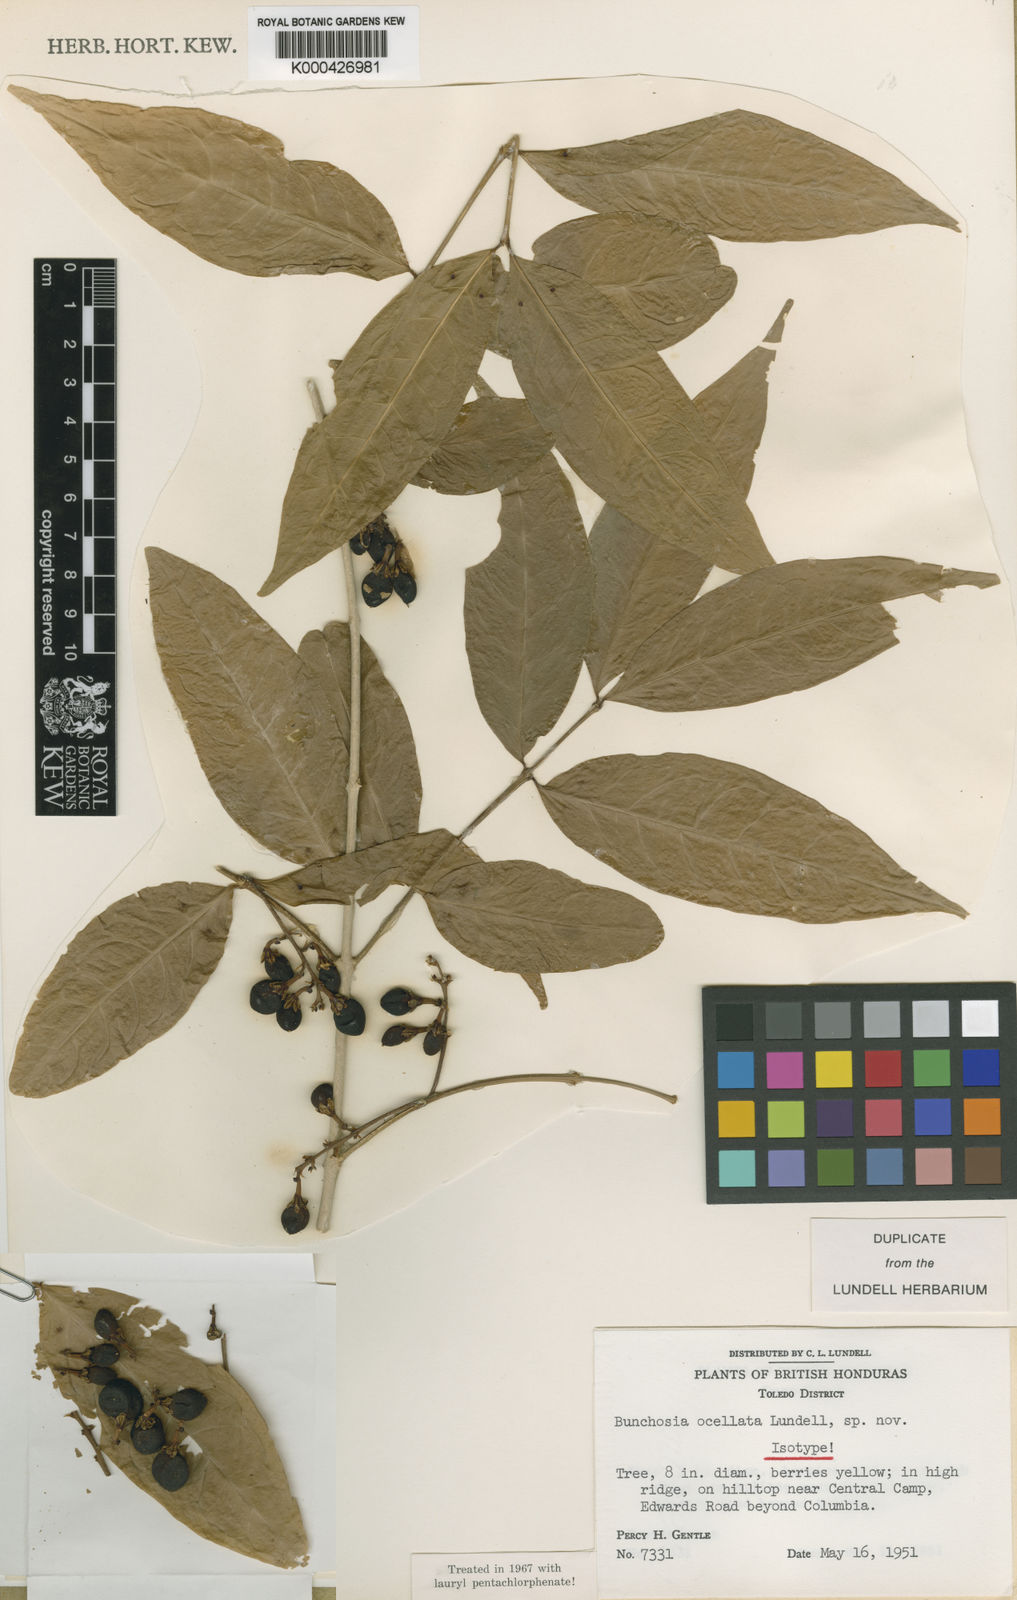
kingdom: Plantae
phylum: Tracheophyta
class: Magnoliopsida
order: Malpighiales
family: Malpighiaceae
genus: Bunchosia
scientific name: Bunchosia polystachya
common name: Woodland coffee
